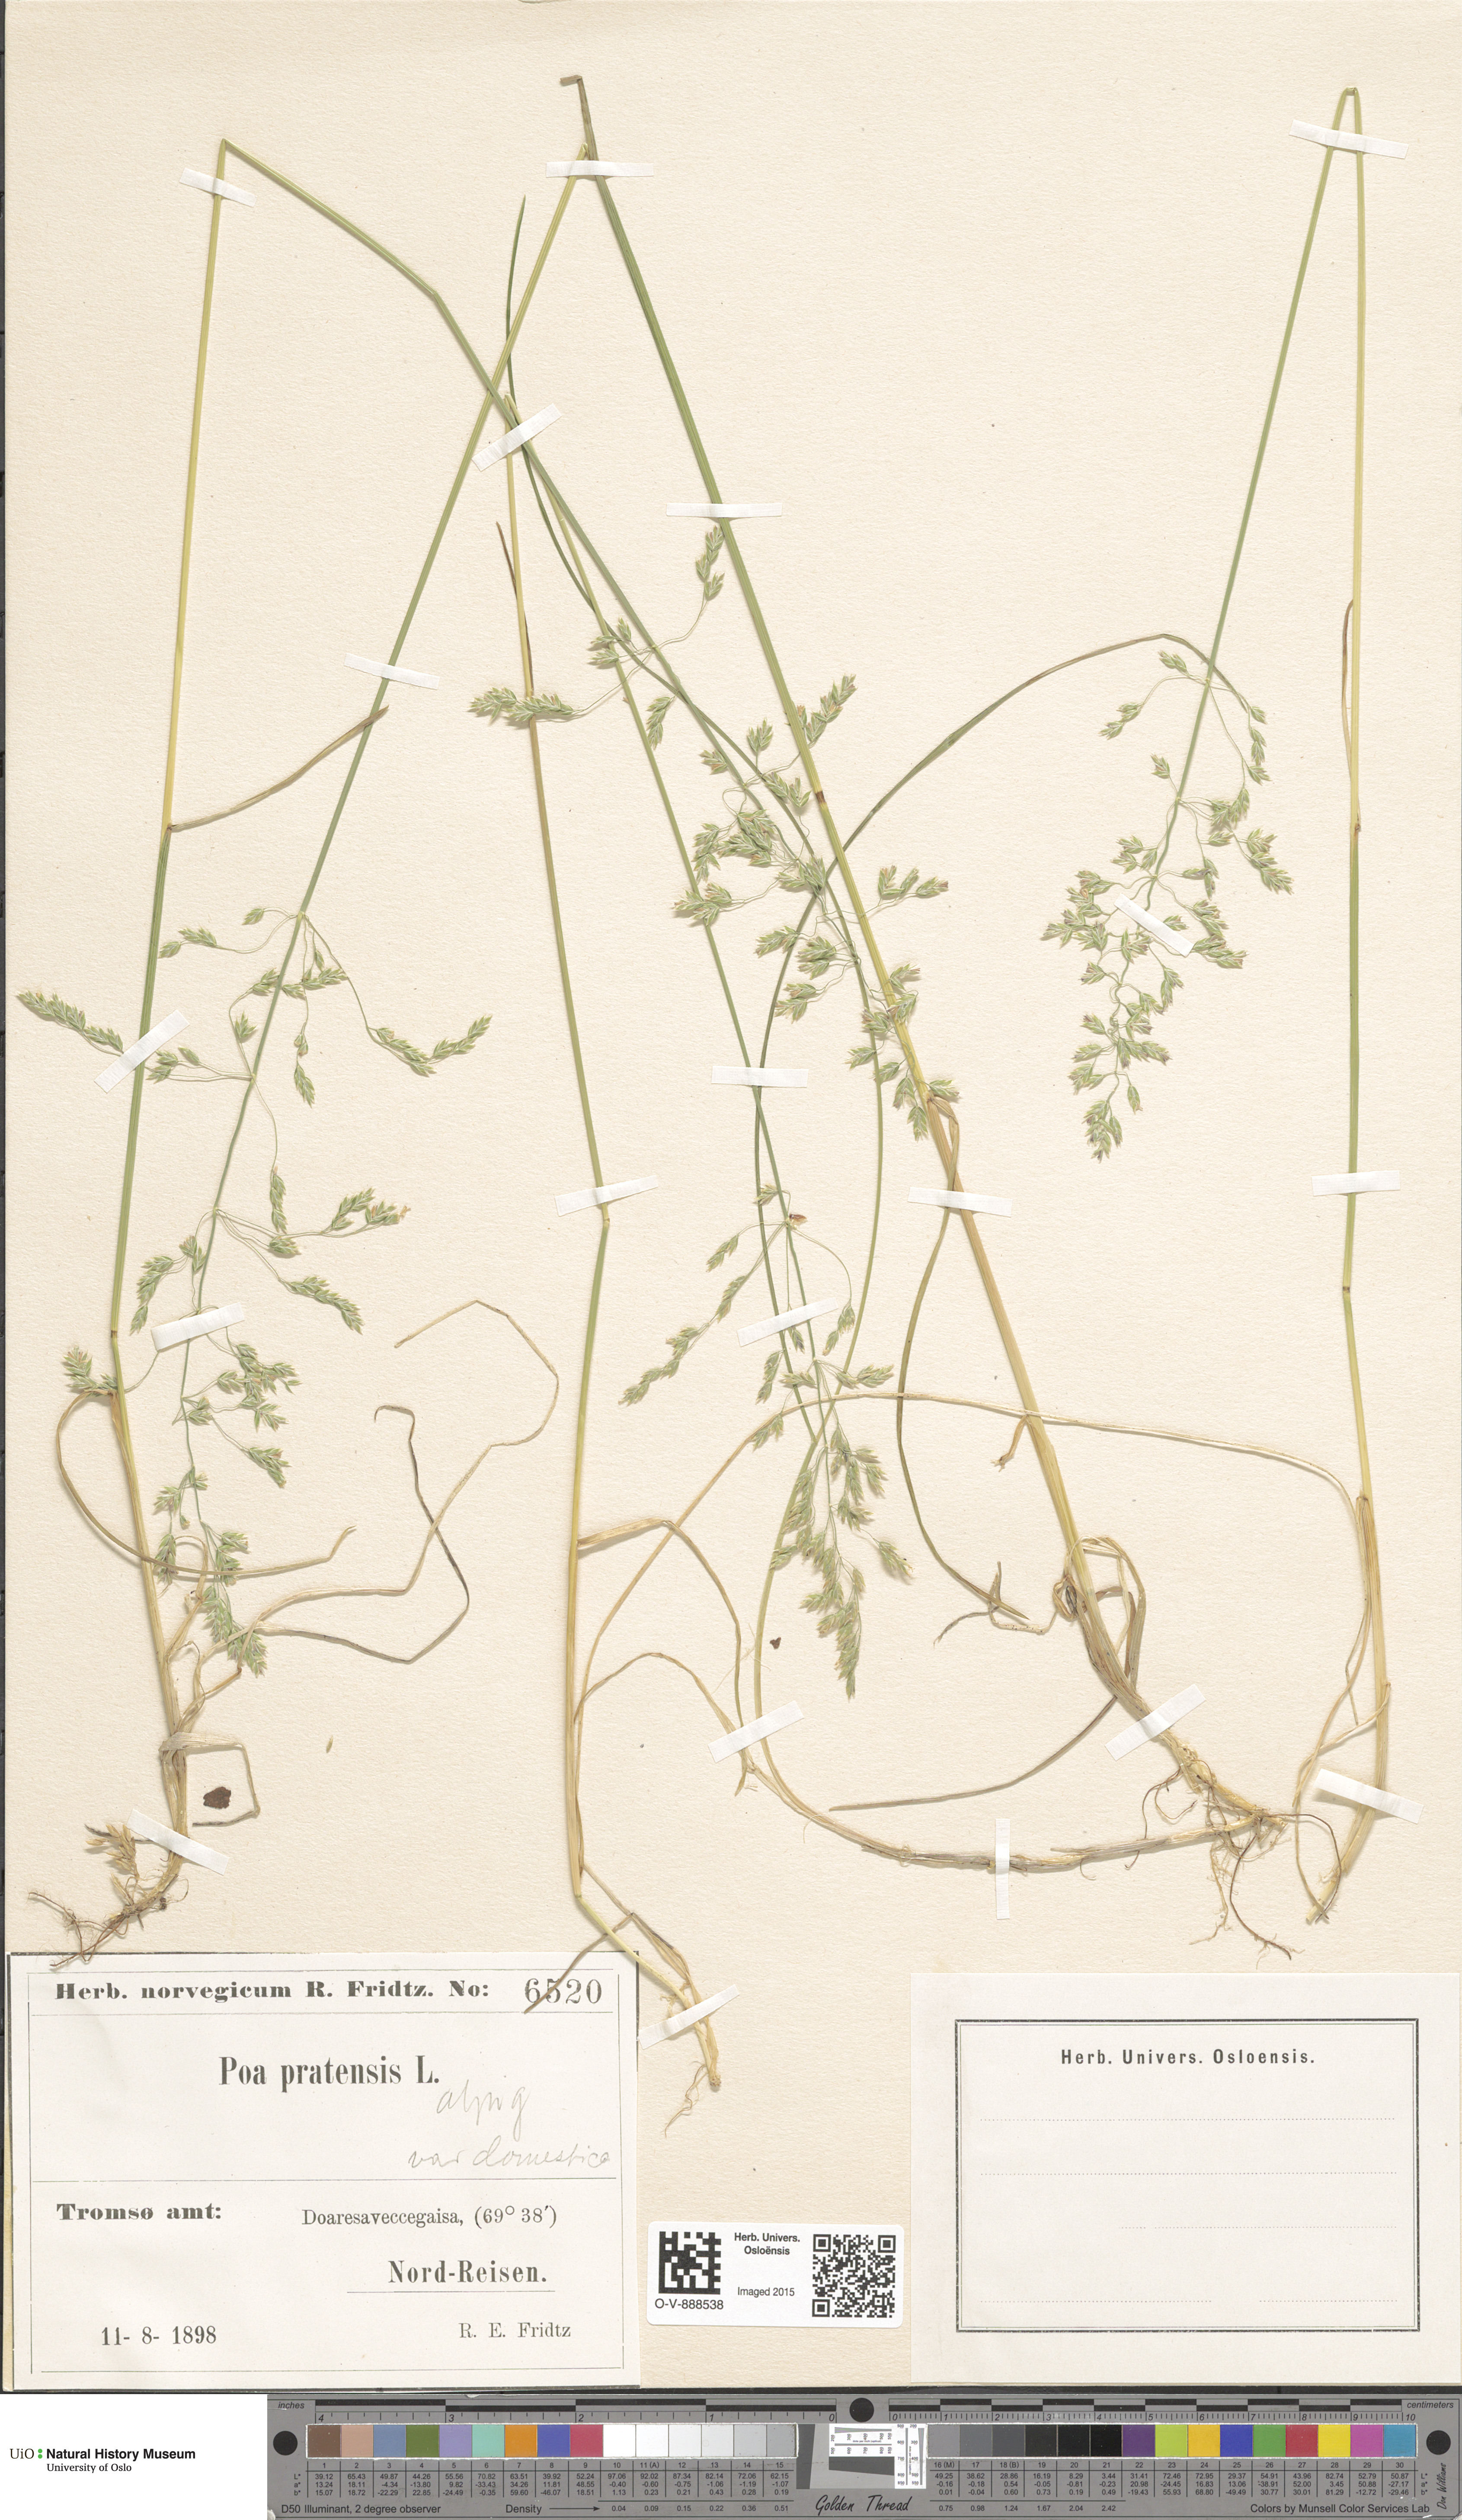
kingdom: Plantae
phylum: Tracheophyta
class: Liliopsida
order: Poales
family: Poaceae
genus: Poa
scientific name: Poa alpigena
